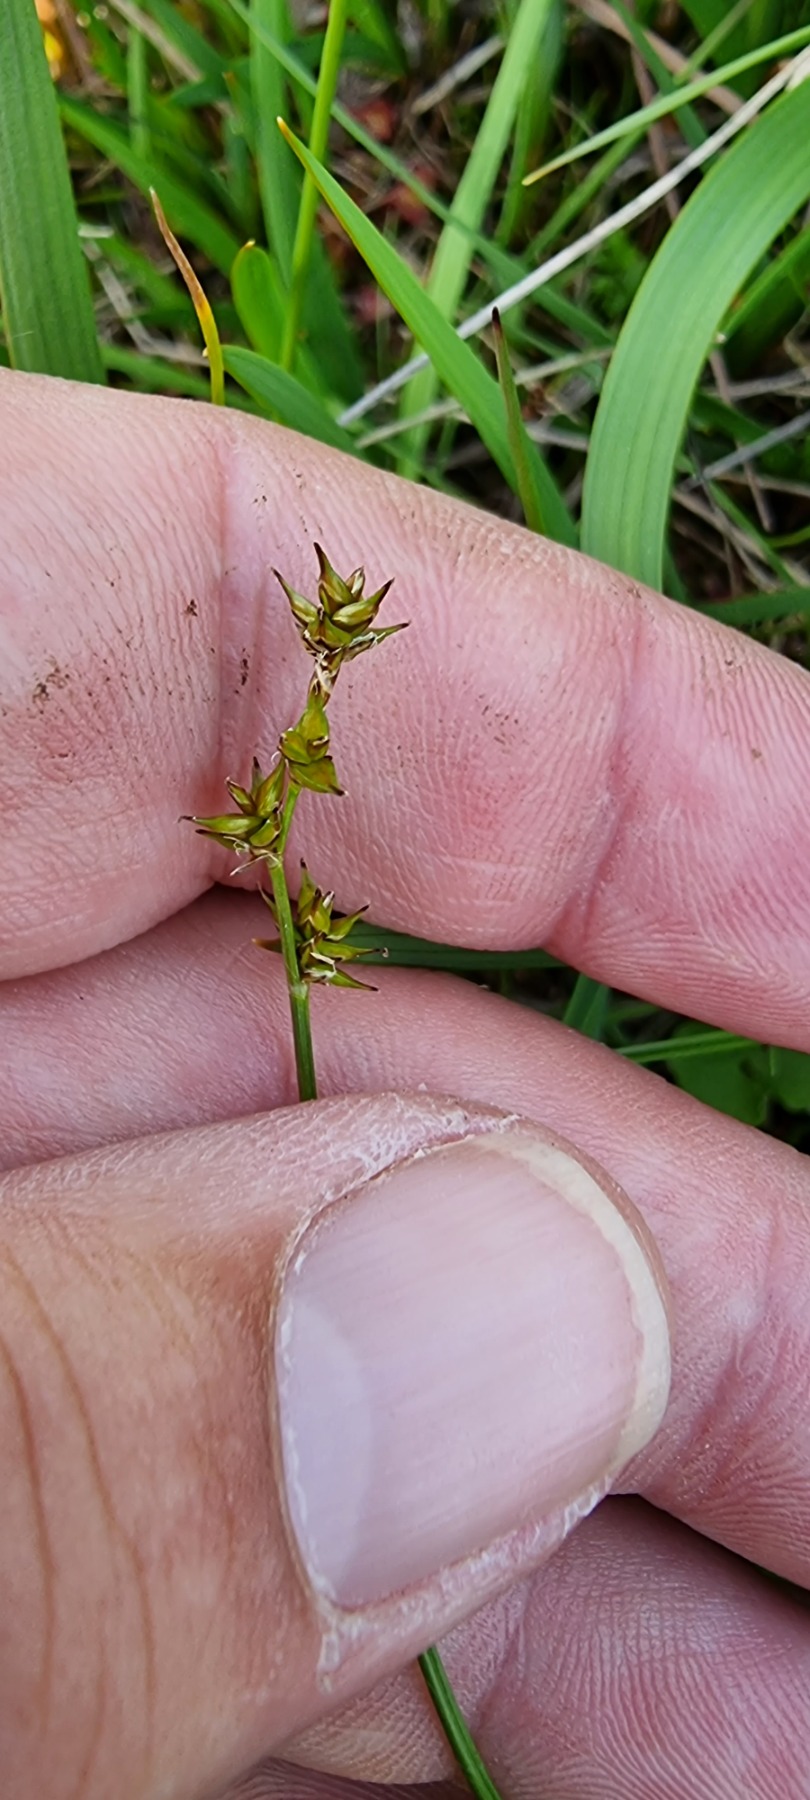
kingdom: Plantae
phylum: Tracheophyta
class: Liliopsida
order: Poales
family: Cyperaceae
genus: Carex
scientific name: Carex echinata
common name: Stjerne-star
